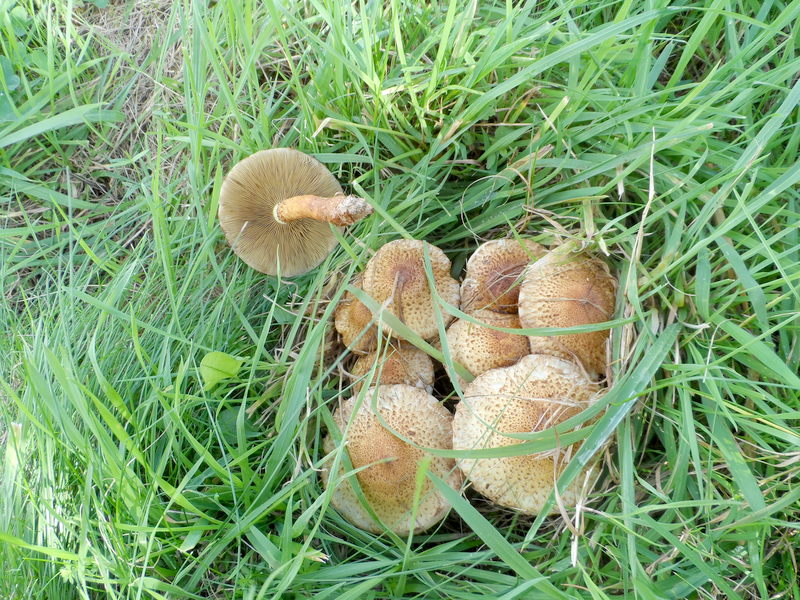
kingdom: Plantae
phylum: Tracheophyta
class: Magnoliopsida
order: Rosales
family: Rosaceae
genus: Malus
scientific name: Malus domestica
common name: Apple
